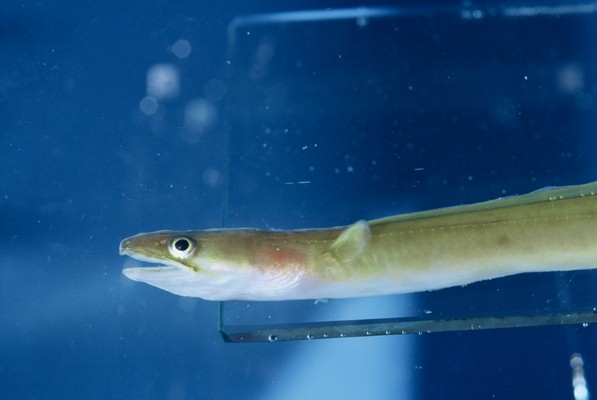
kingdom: Animalia
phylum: Chordata
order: Anguilliformes
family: Congridae
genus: Conger
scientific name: Conger cinereus
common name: Moustache conger
